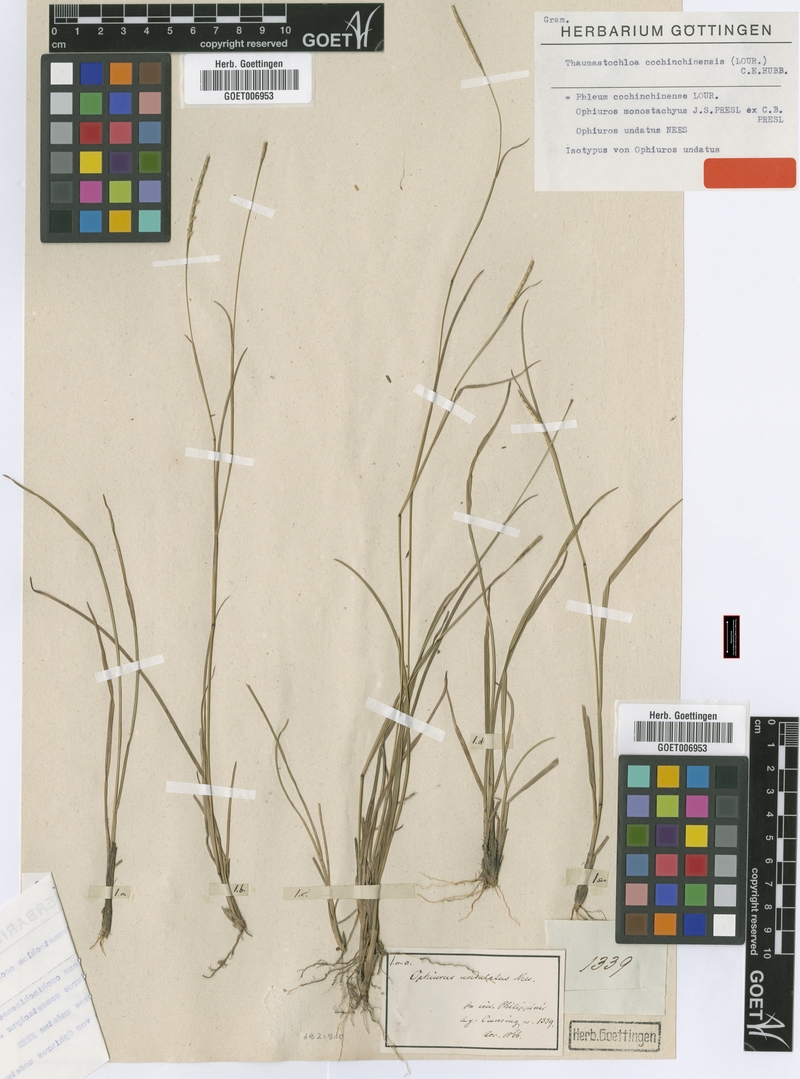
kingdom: Plantae
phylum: Tracheophyta
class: Liliopsida
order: Poales
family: Poaceae
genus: Mnesithea
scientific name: Mnesithea laevis
